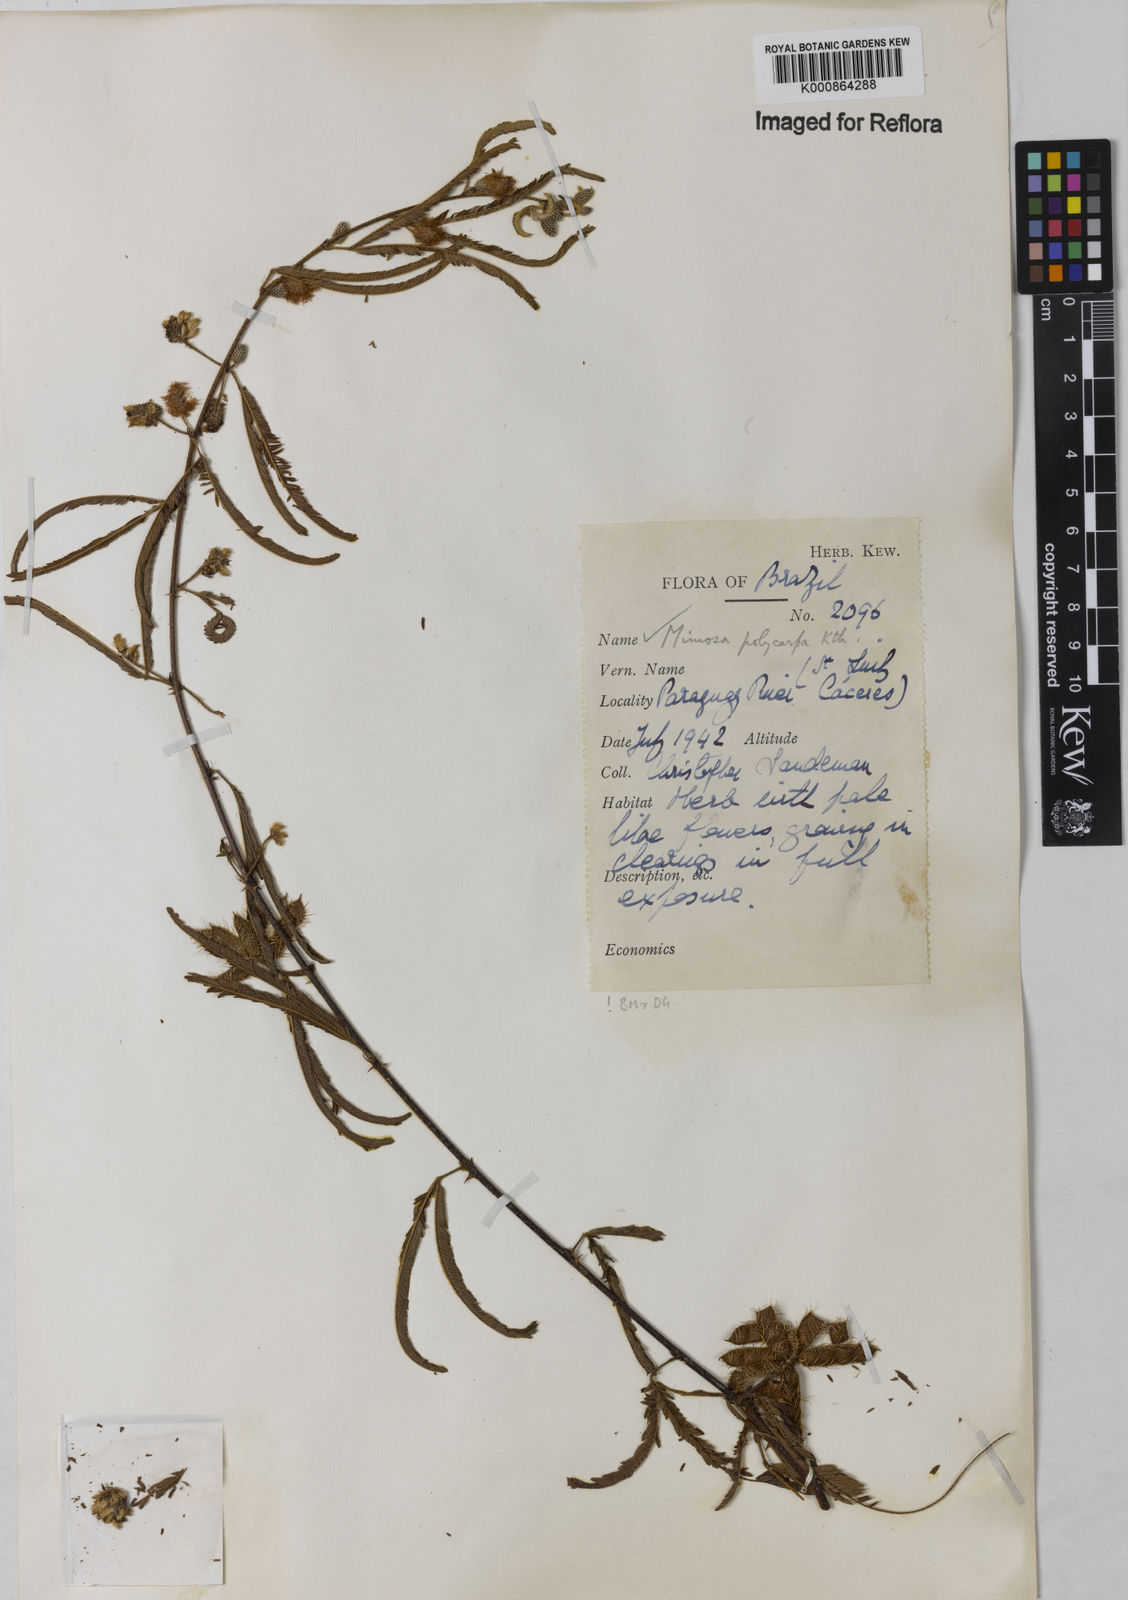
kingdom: Plantae
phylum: Tracheophyta
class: Magnoliopsida
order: Fabales
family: Fabaceae
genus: Mimosa
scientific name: Mimosa
